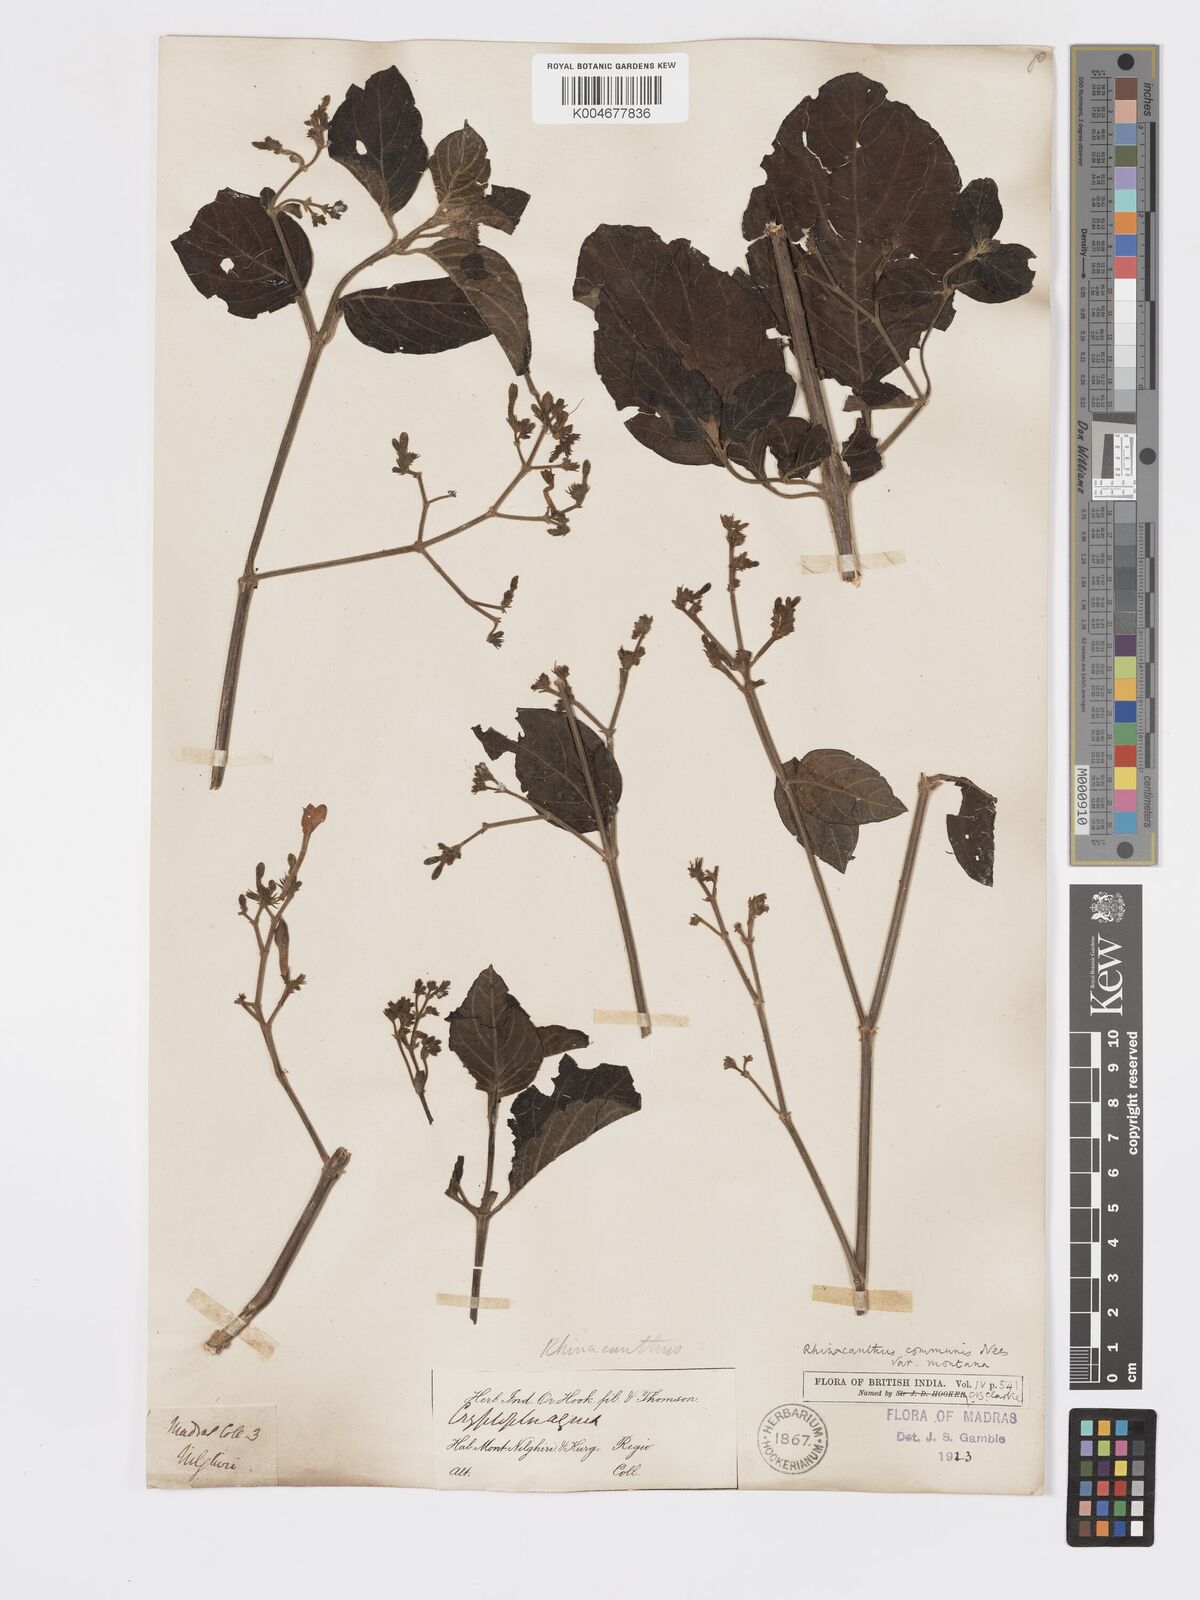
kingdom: Plantae
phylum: Tracheophyta
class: Magnoliopsida
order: Lamiales
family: Acanthaceae
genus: Rhinacanthus
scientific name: Rhinacanthus nasutus
